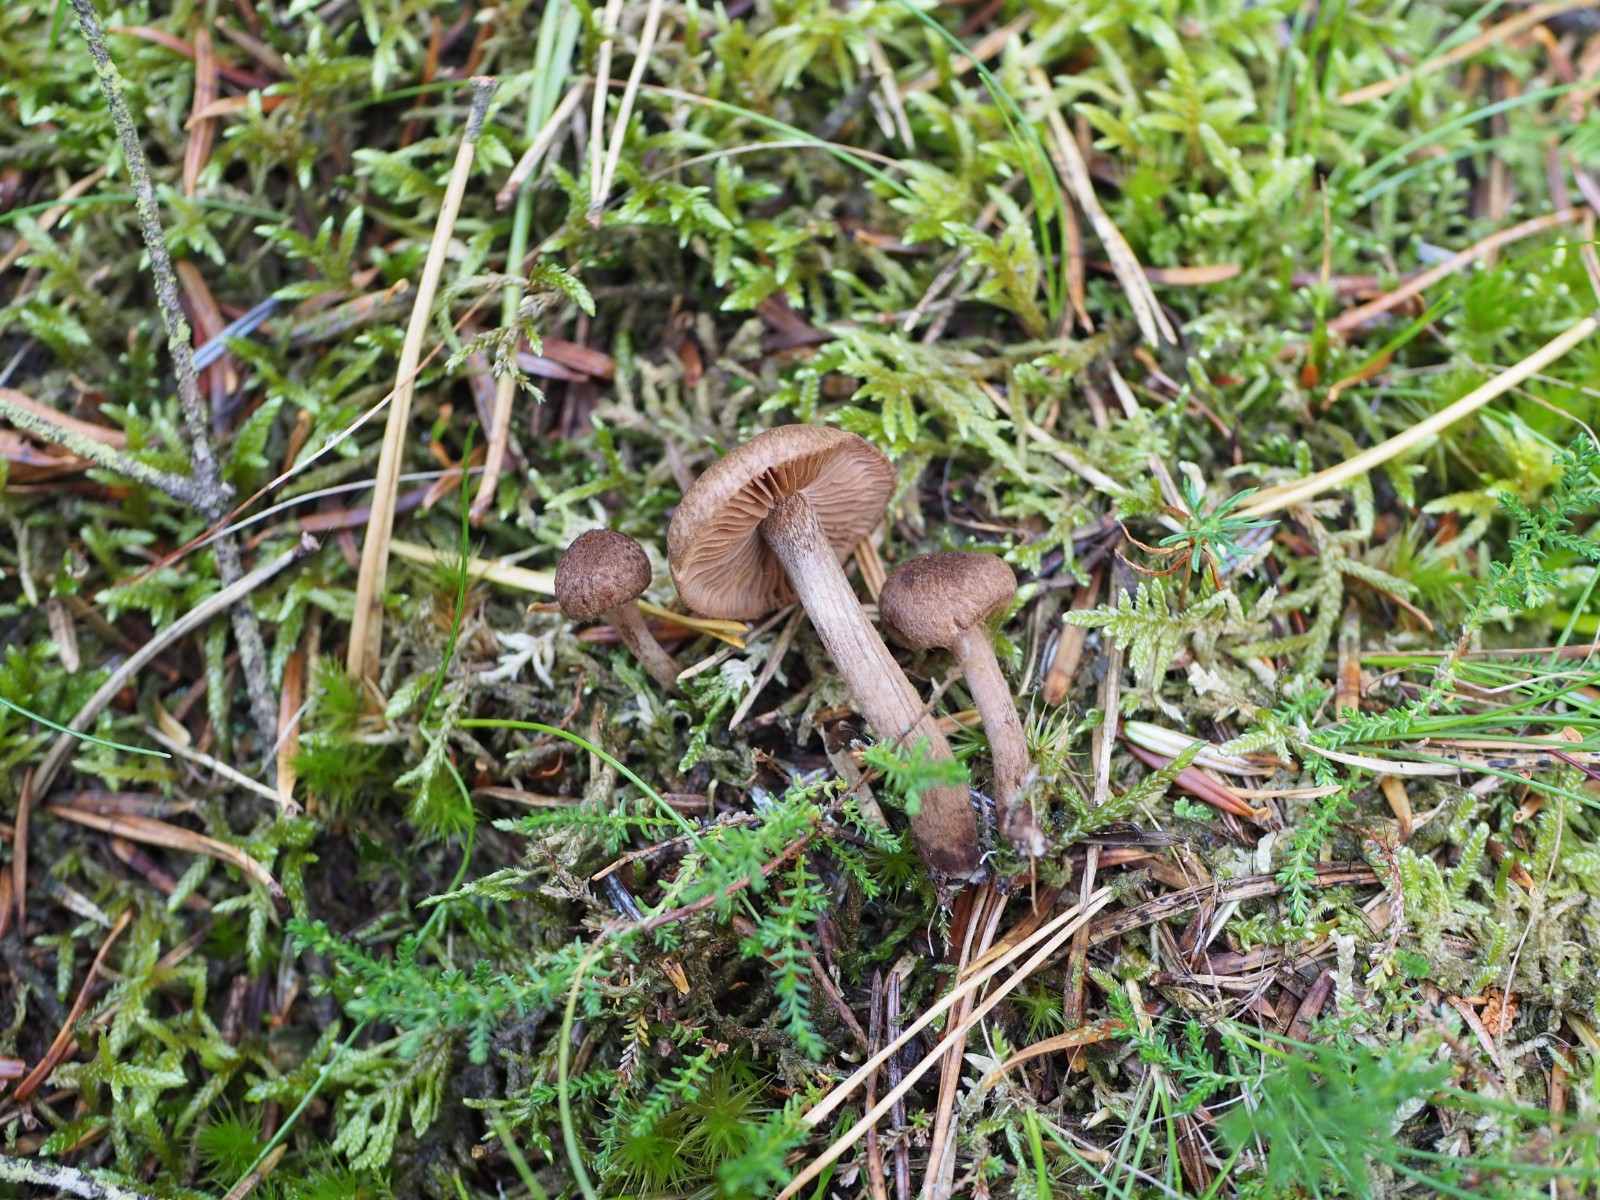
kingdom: Fungi
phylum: Basidiomycota
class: Agaricomycetes
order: Agaricales
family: Inocybaceae
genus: Inocybe
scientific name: Inocybe lanuginosa
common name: uldskællet trævlhat
